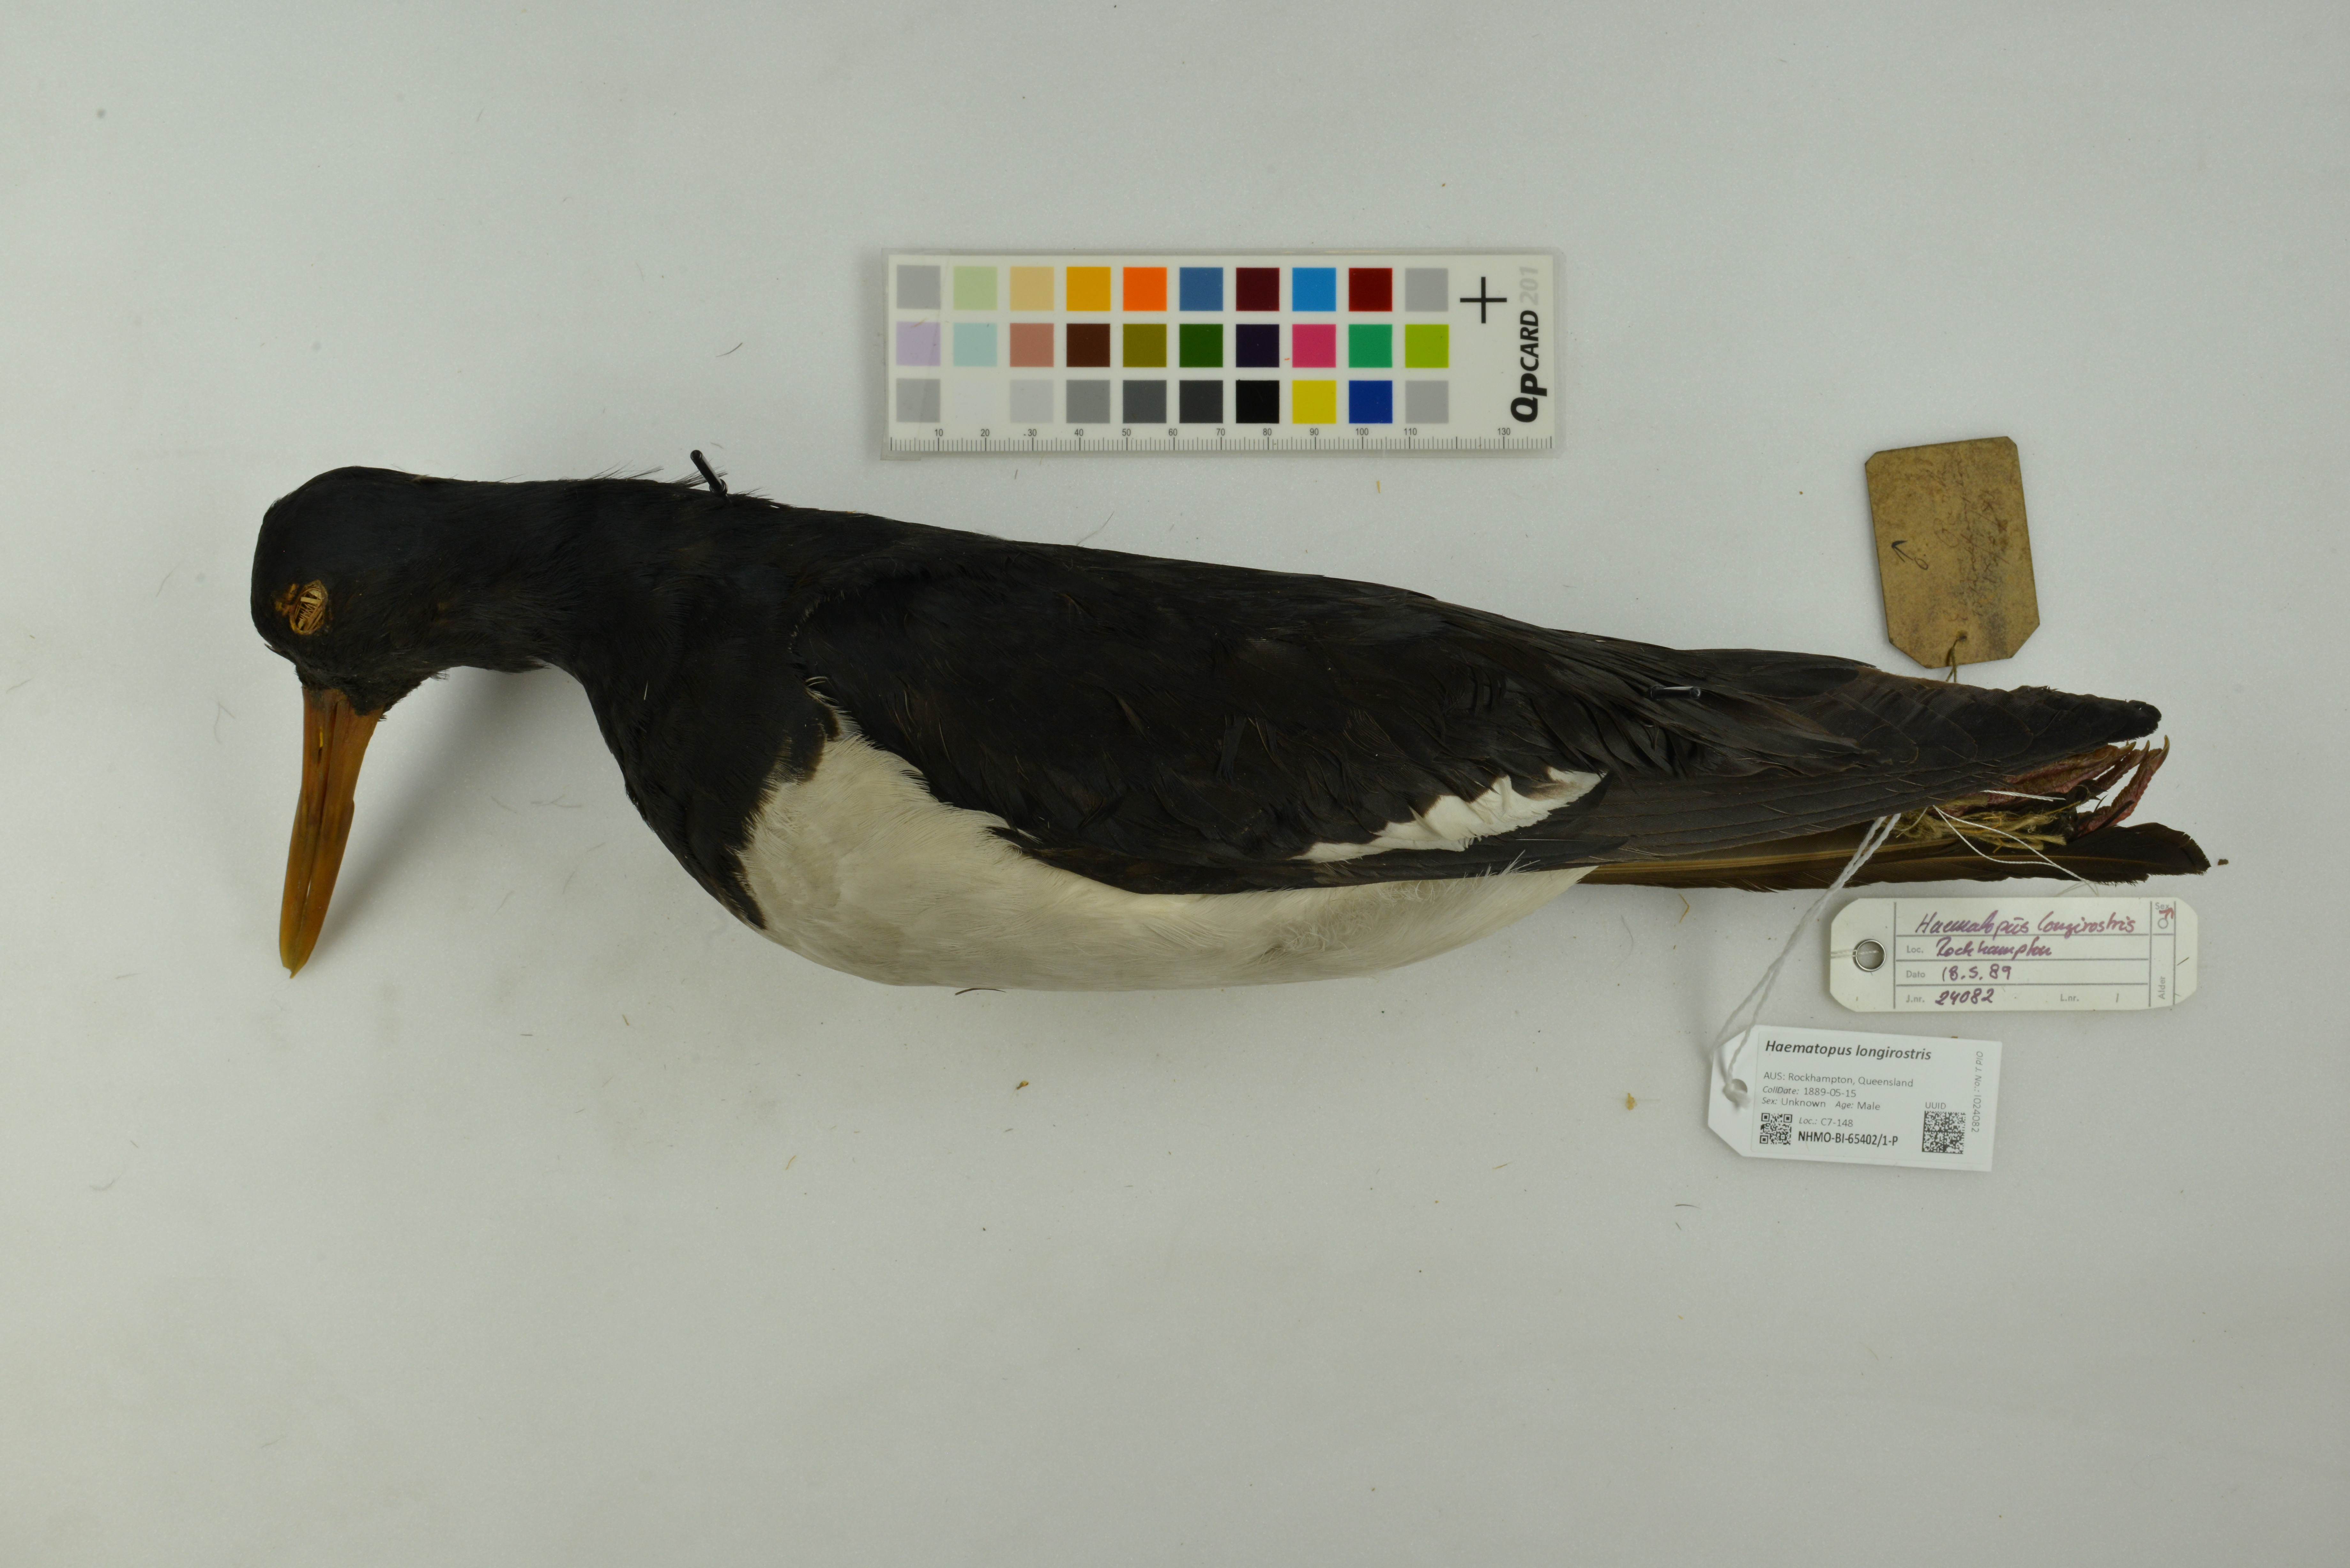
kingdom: Animalia
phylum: Chordata
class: Aves
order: Charadriiformes
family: Haematopodidae
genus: Haematopus
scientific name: Haematopus longirostris
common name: Pied oystercatcher
